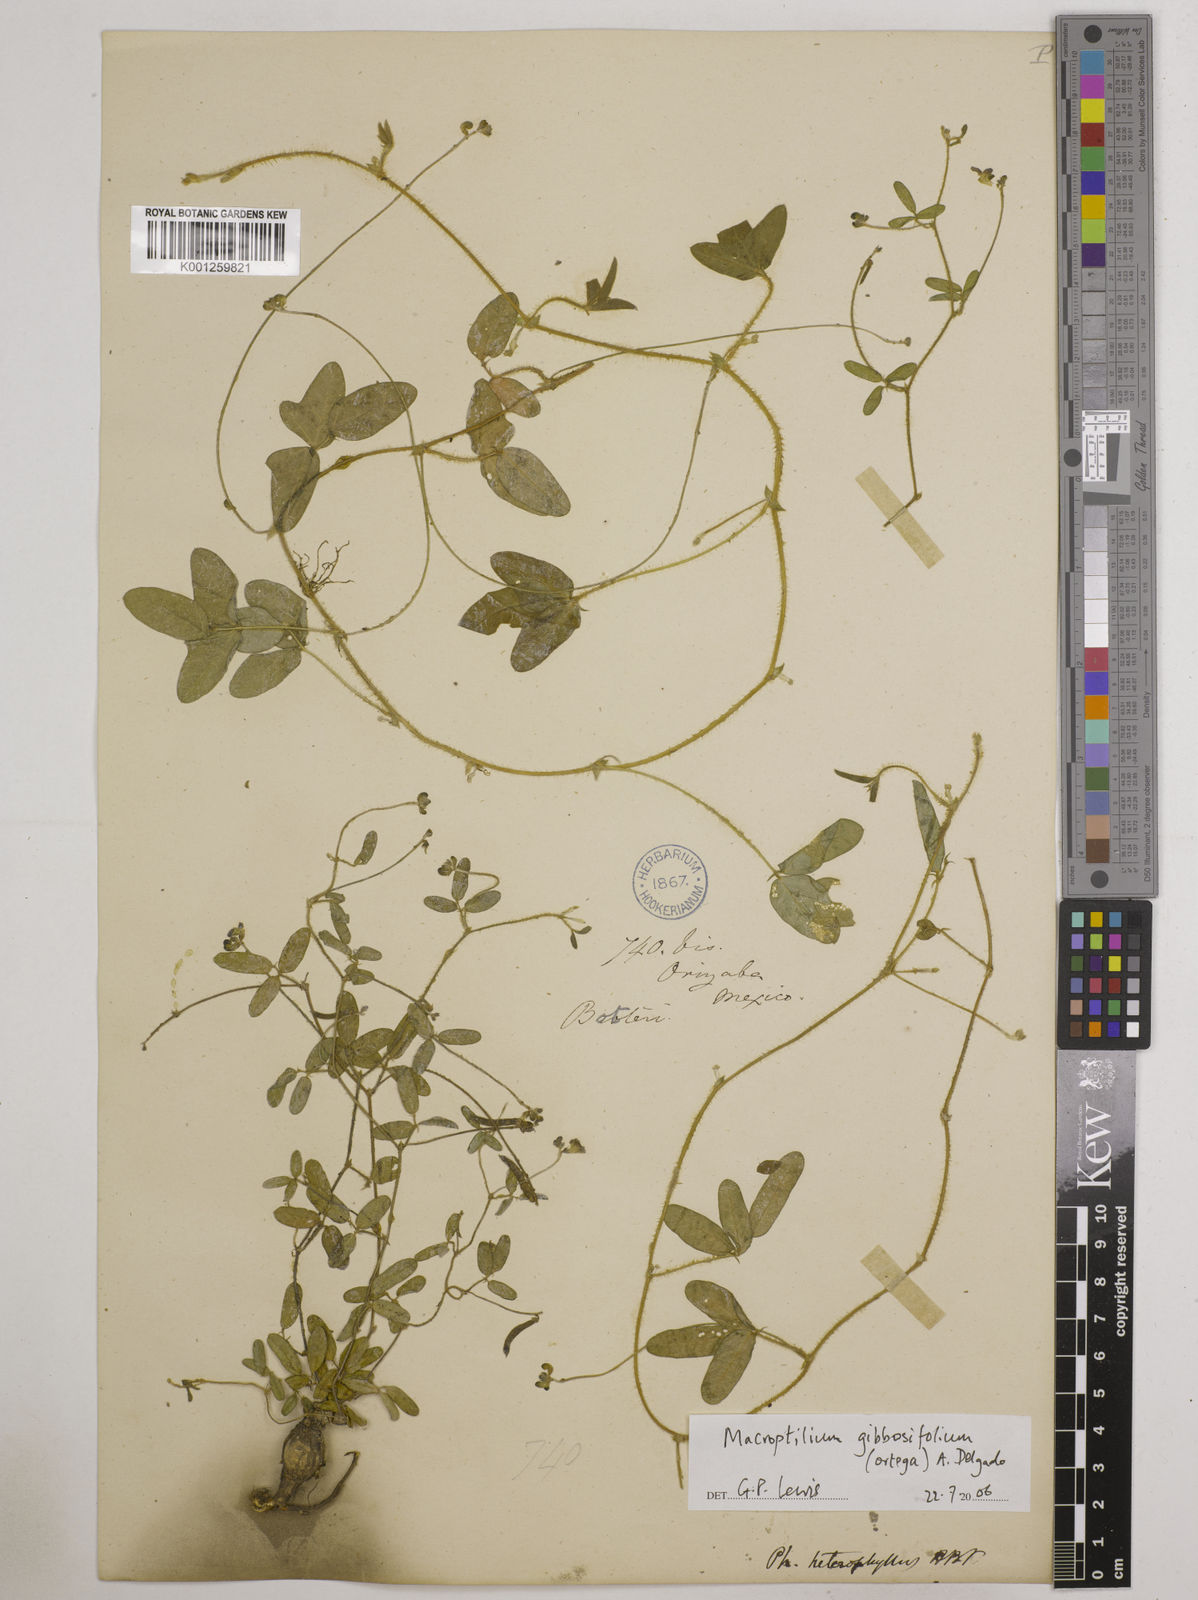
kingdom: Plantae
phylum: Tracheophyta
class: Magnoliopsida
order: Fabales
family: Fabaceae
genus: Macroptilium
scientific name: Macroptilium gibbosifolium
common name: Variableleaf bushbean
